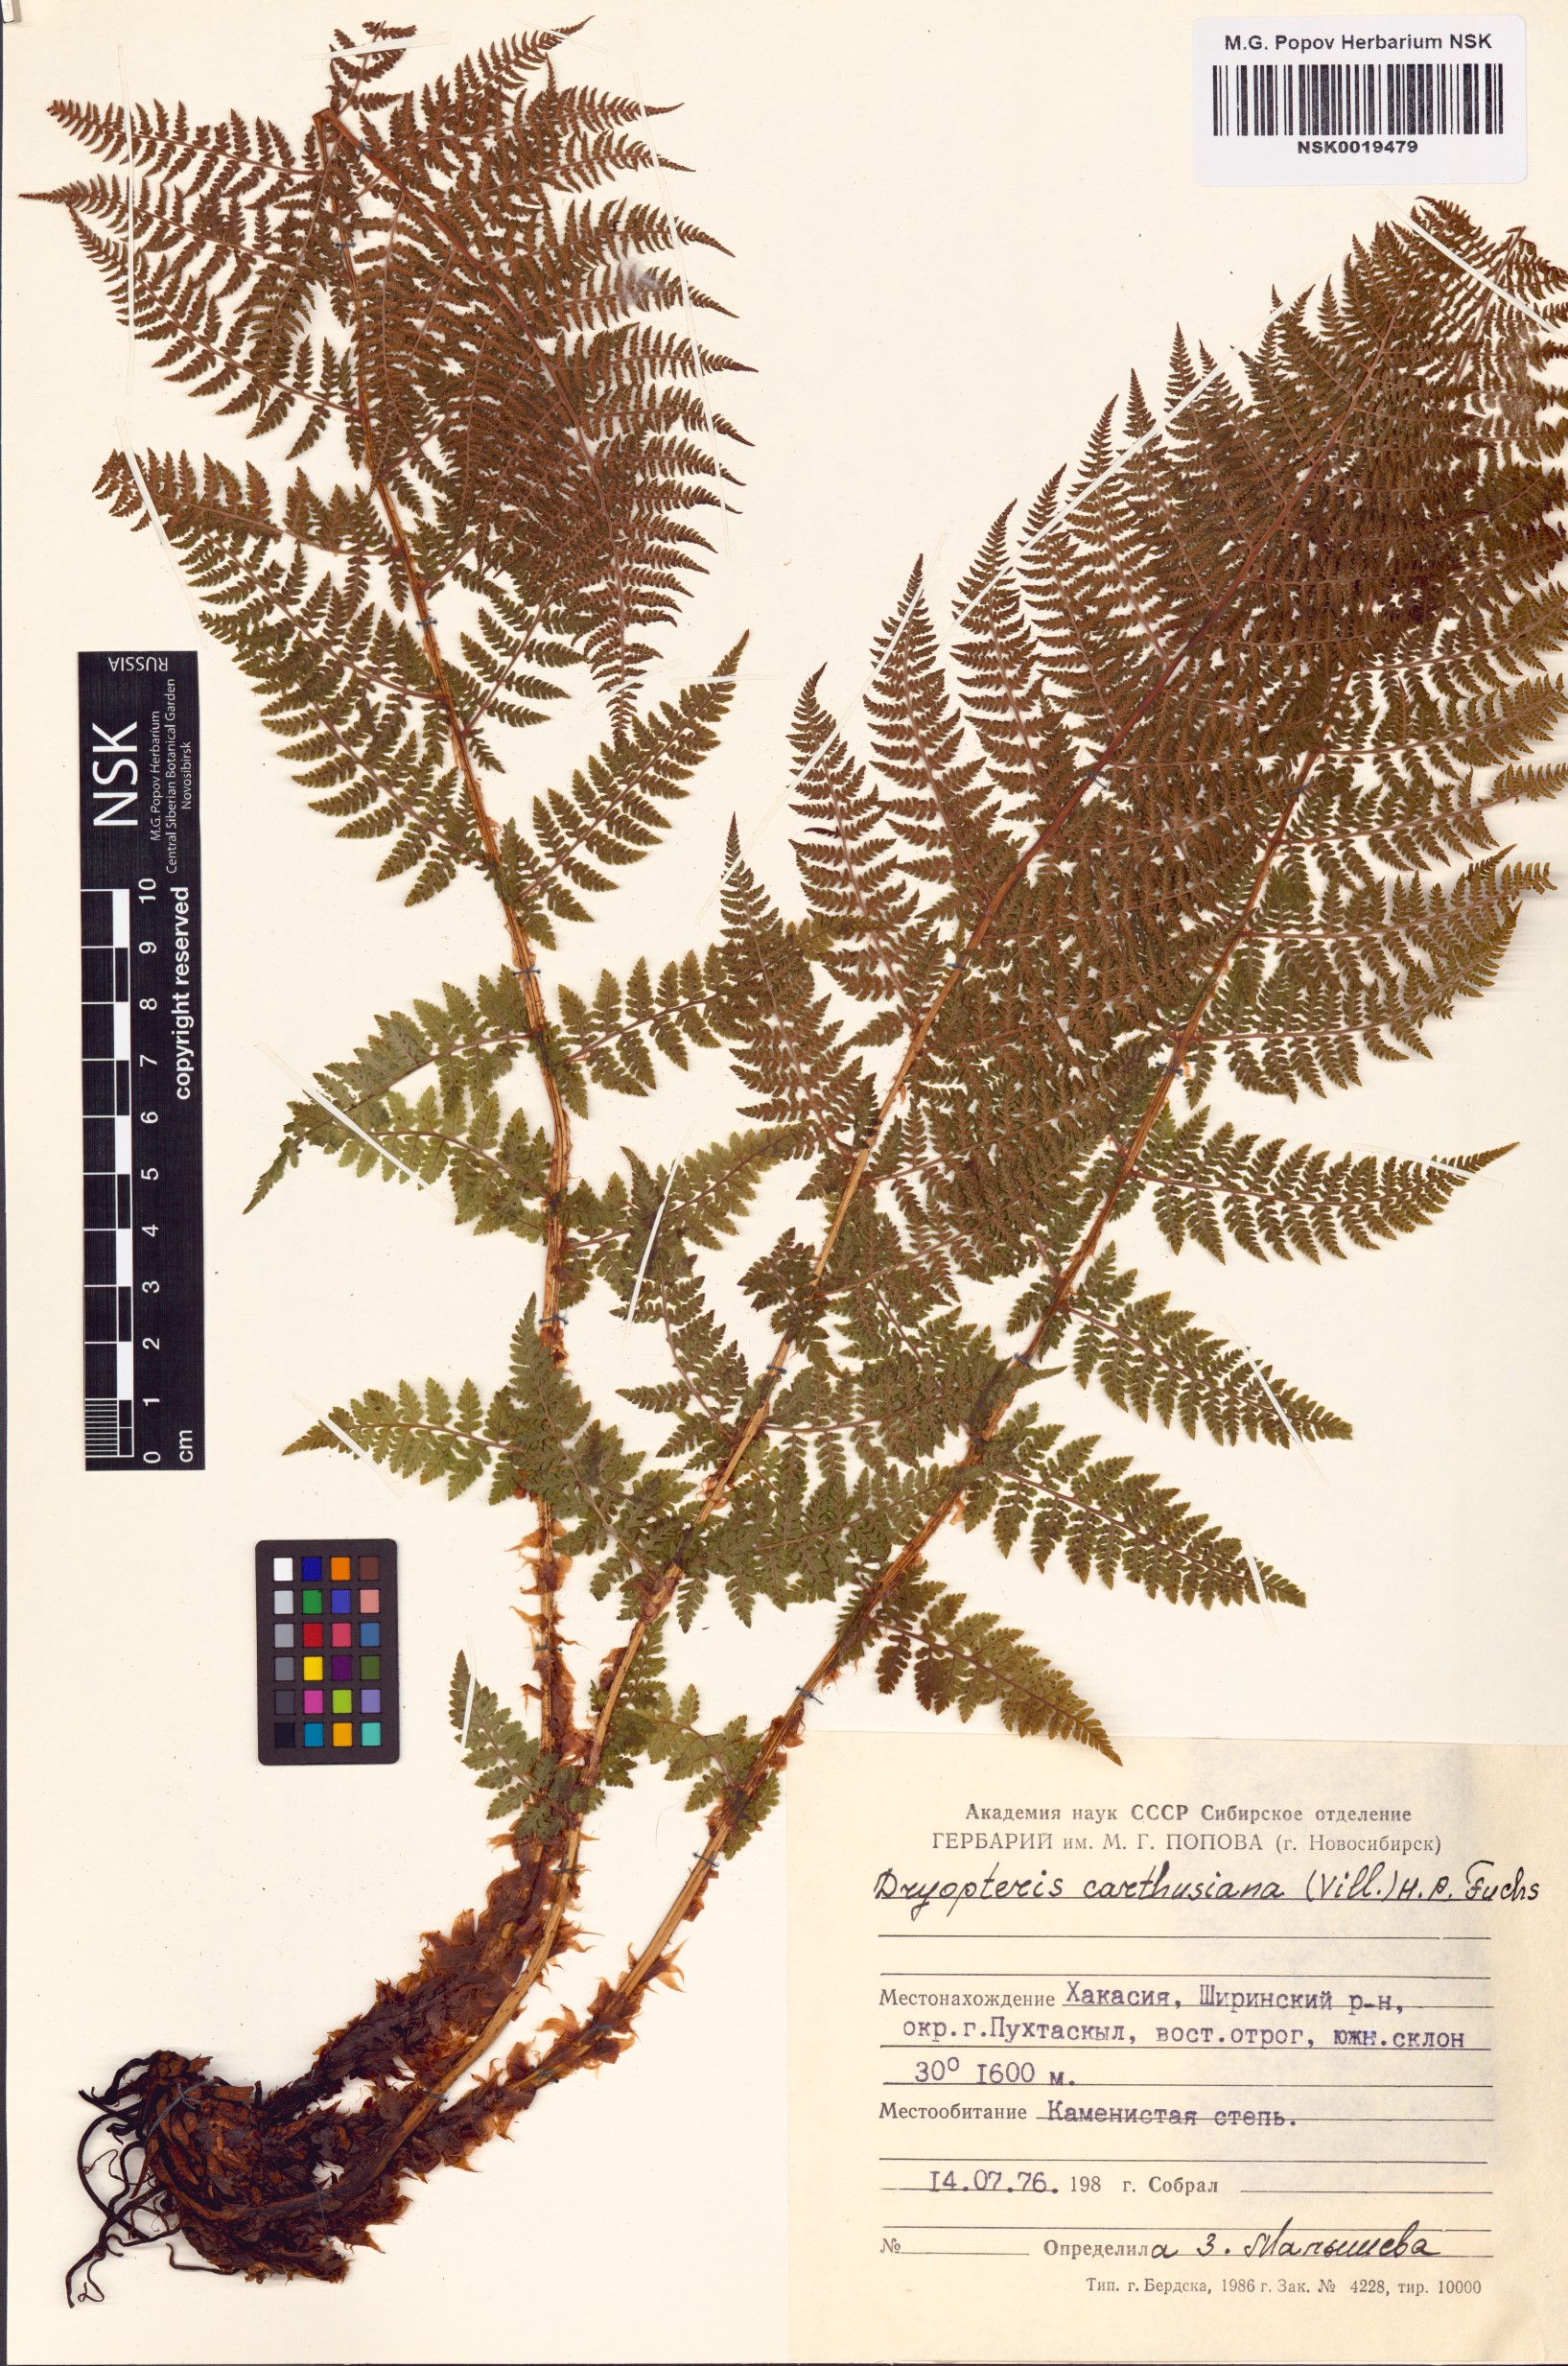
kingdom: Plantae
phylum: Tracheophyta
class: Polypodiopsida
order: Polypodiales
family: Dryopteridaceae
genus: Dryopteris
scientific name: Dryopteris carthusiana
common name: Narrow buckler-fern
